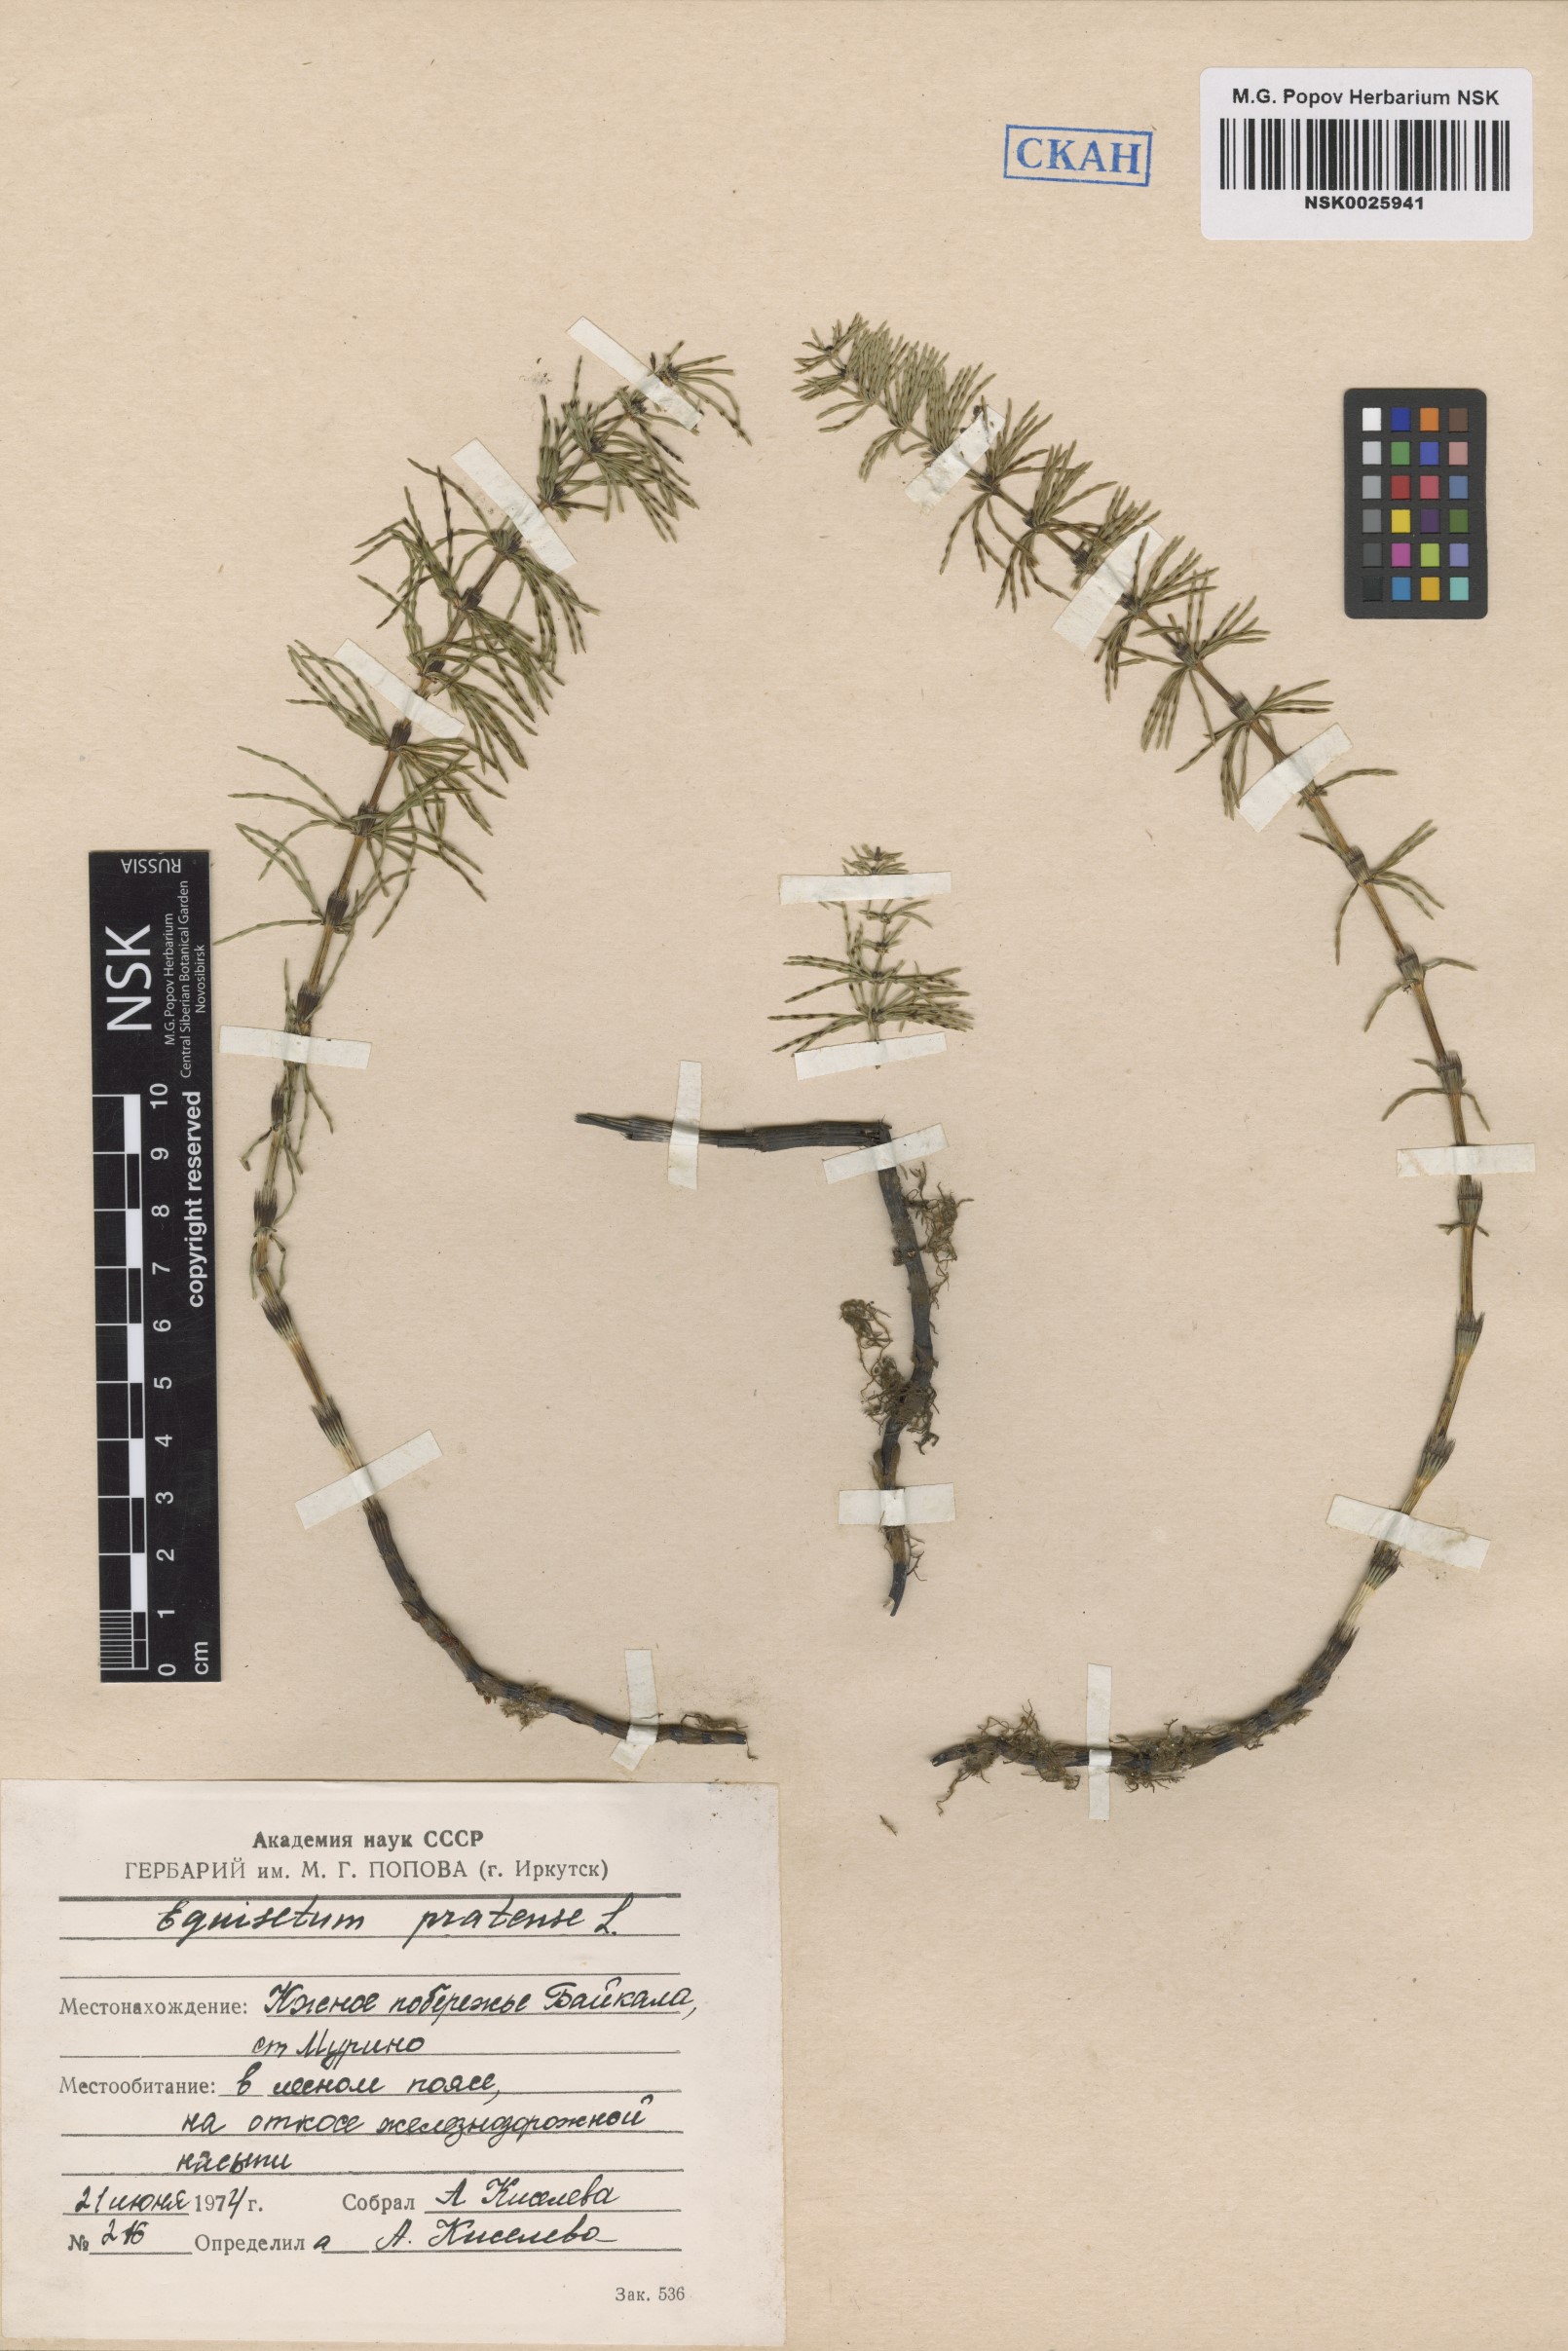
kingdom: Plantae
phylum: Tracheophyta
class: Polypodiopsida
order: Equisetales
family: Equisetaceae
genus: Equisetum
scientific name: Equisetum pratense
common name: Meadow horsetail
